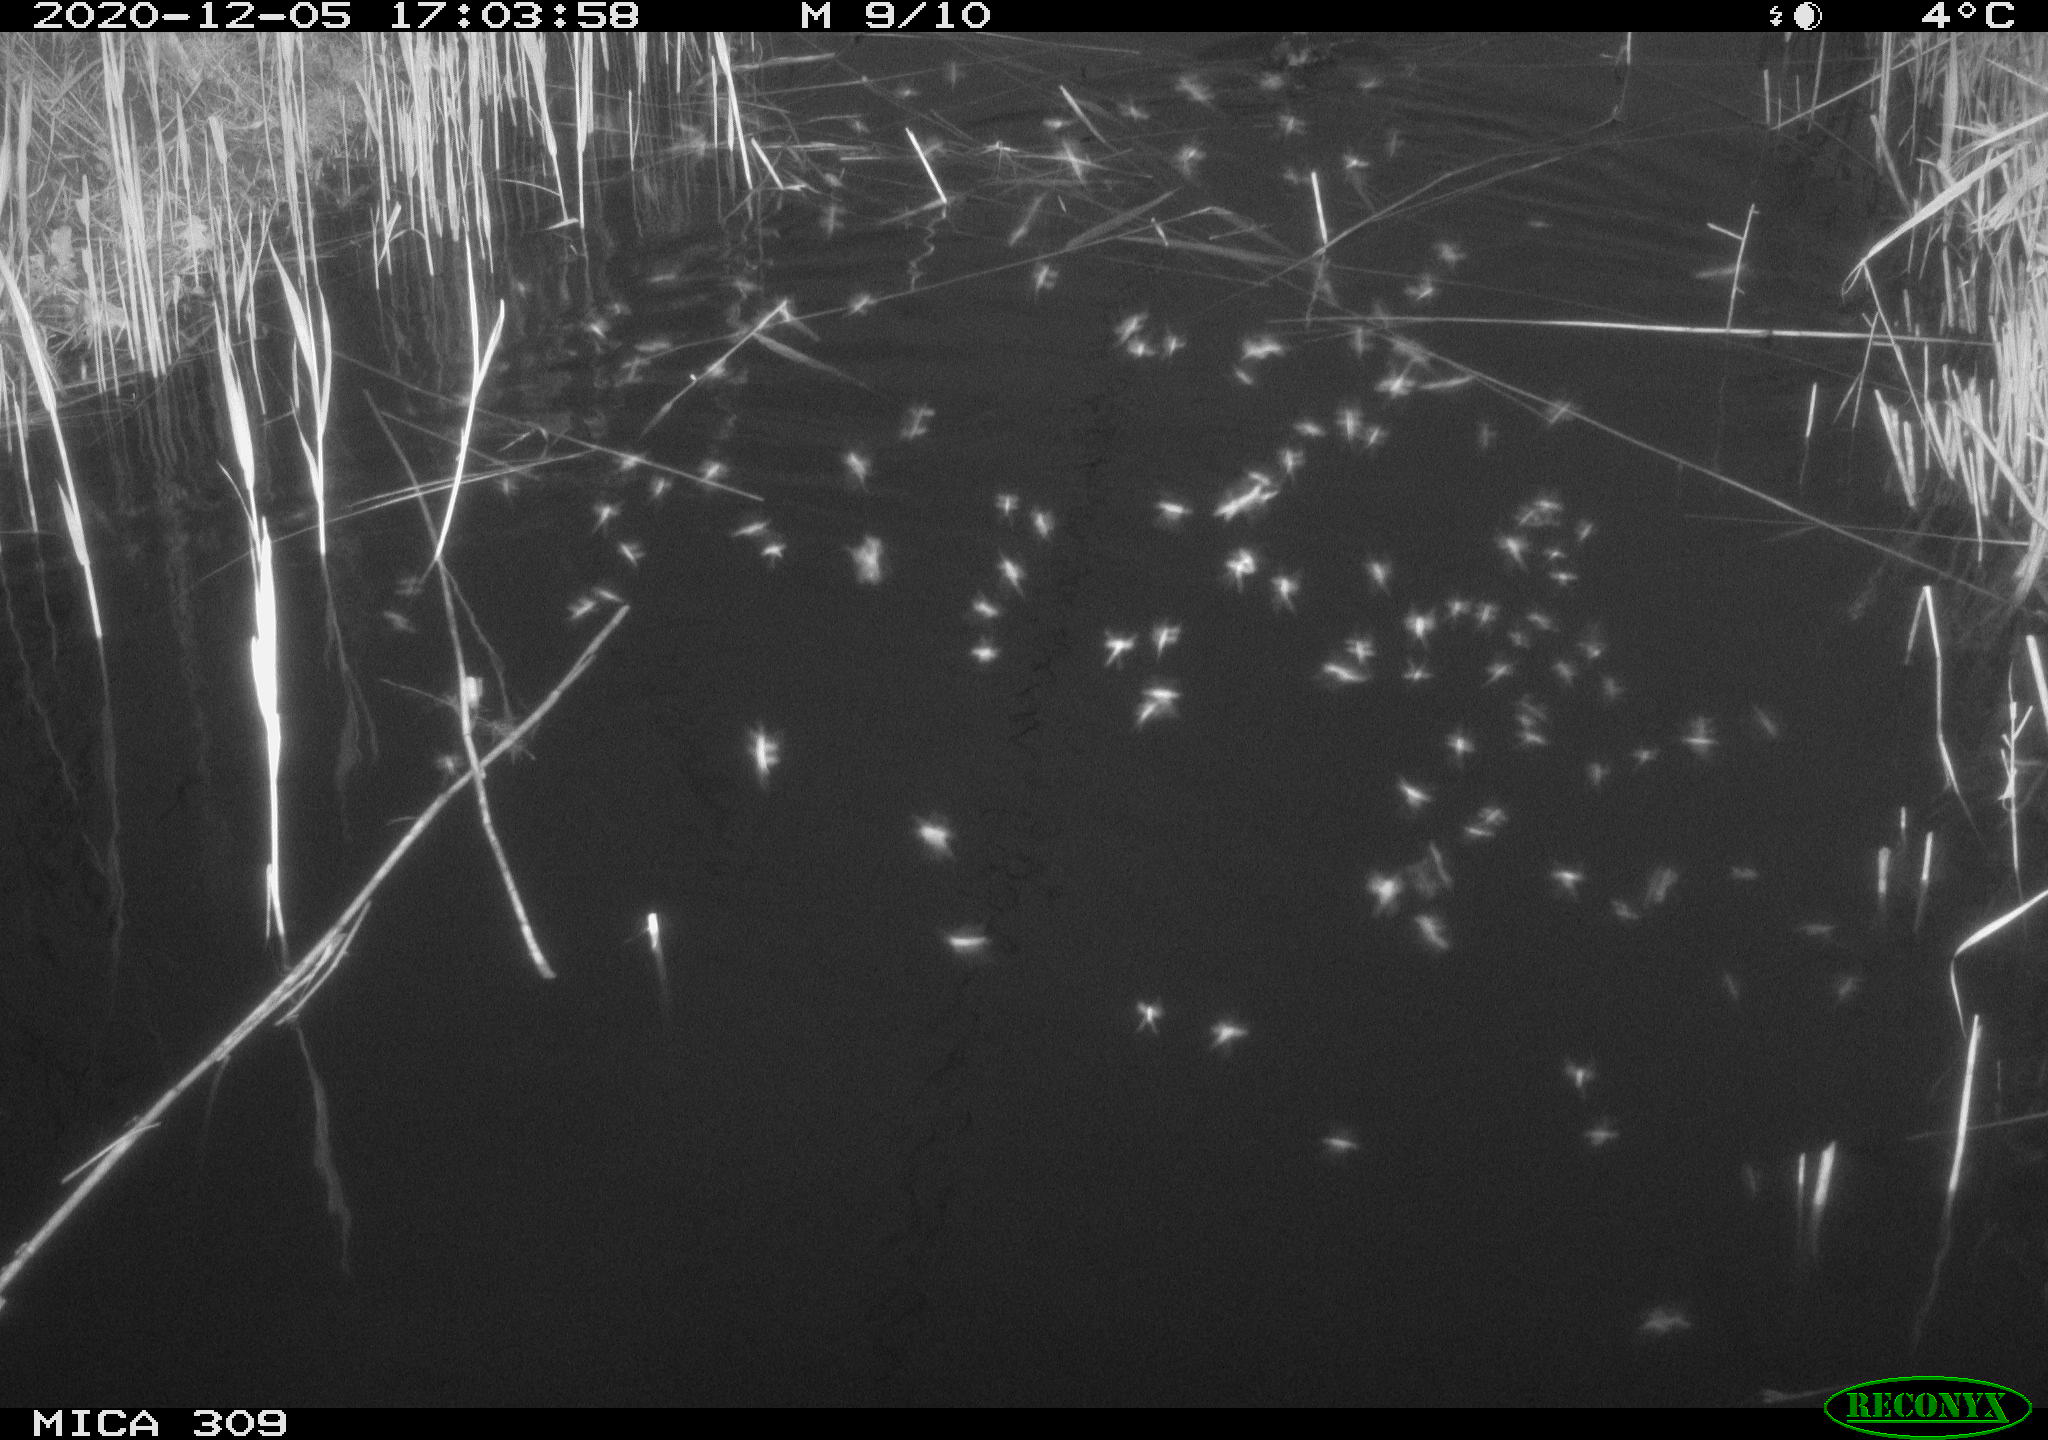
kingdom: Animalia
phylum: Chordata
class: Aves
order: Podicipediformes
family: Podicipedidae
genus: Tachybaptus
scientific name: Tachybaptus ruficollis
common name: Little grebe
